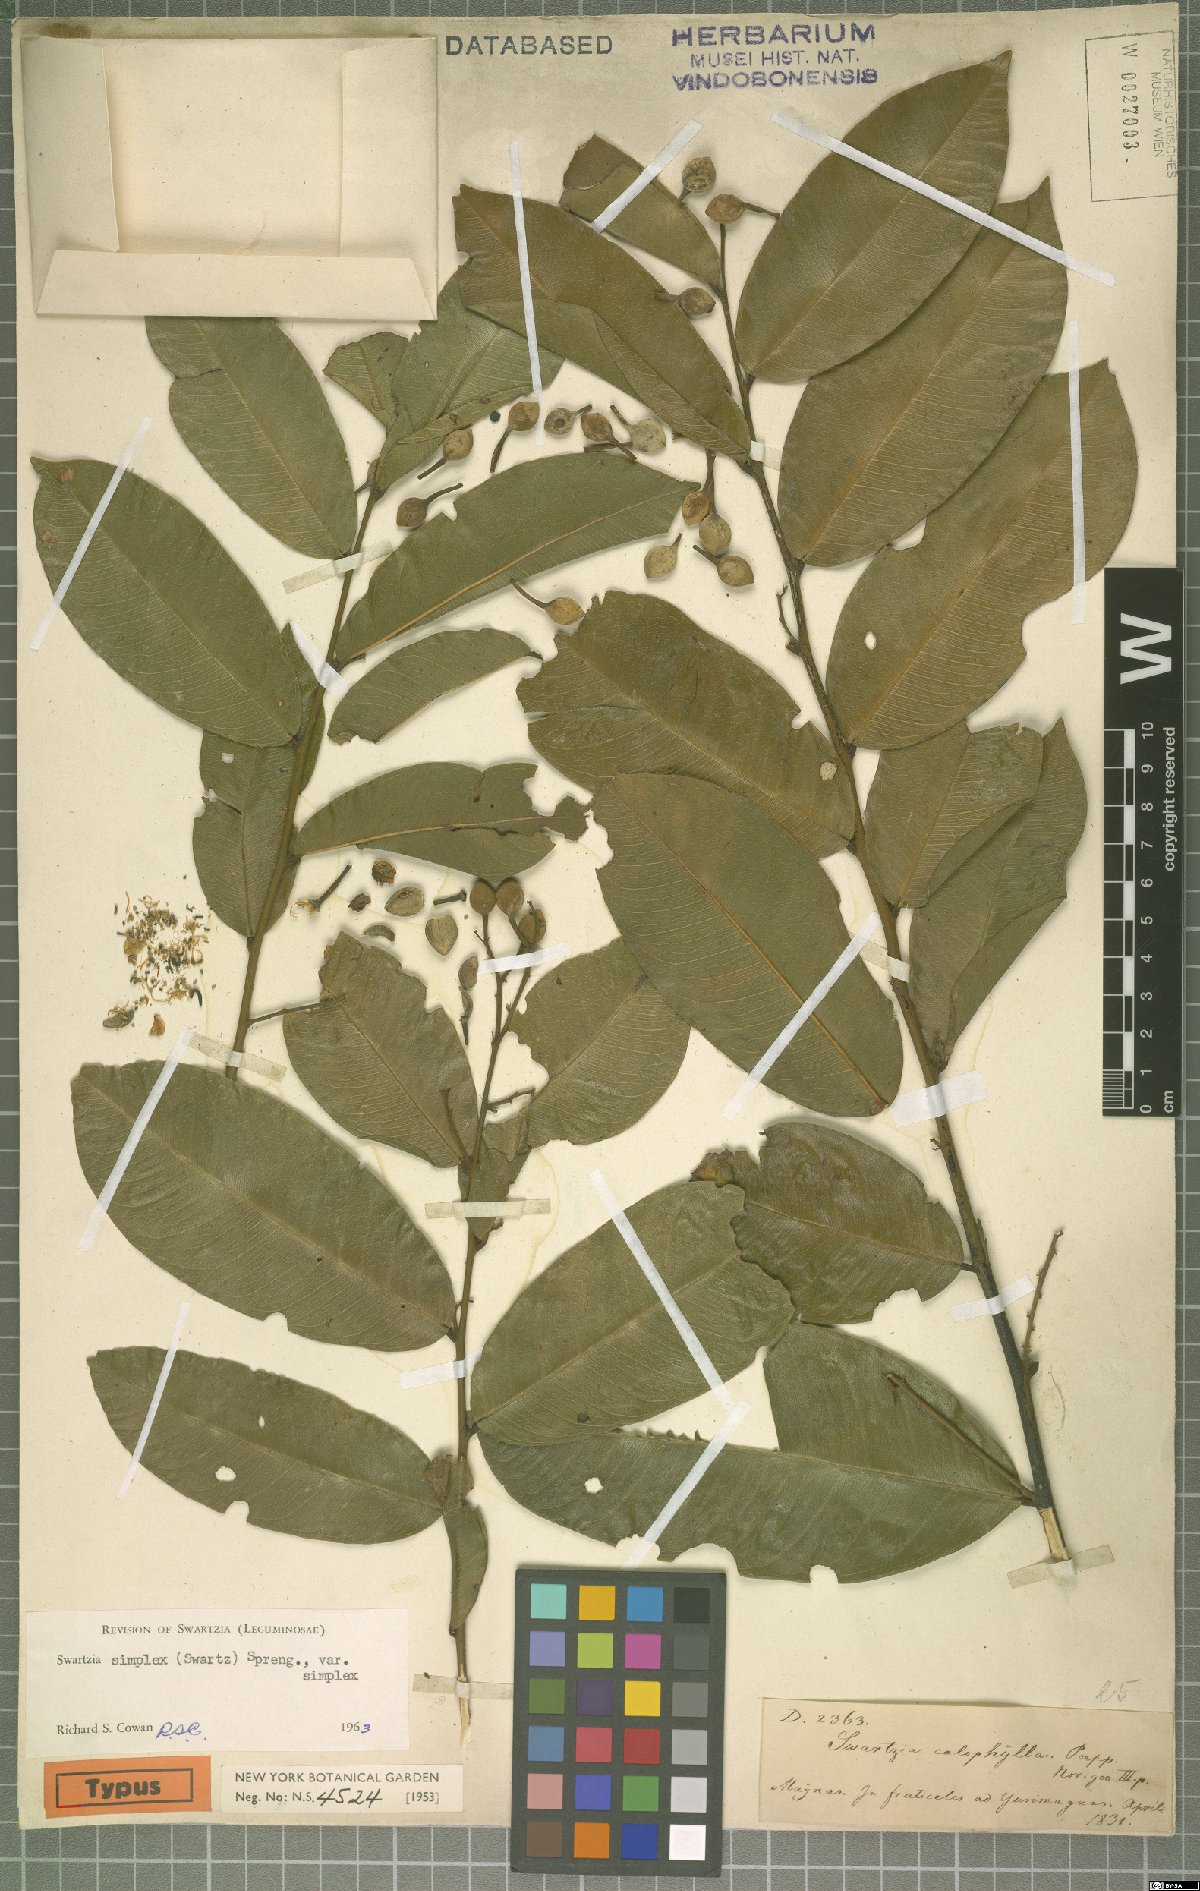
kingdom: Plantae
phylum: Tracheophyta
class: Magnoliopsida
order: Fabales
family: Fabaceae
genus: Swartzia
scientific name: Swartzia simplex
